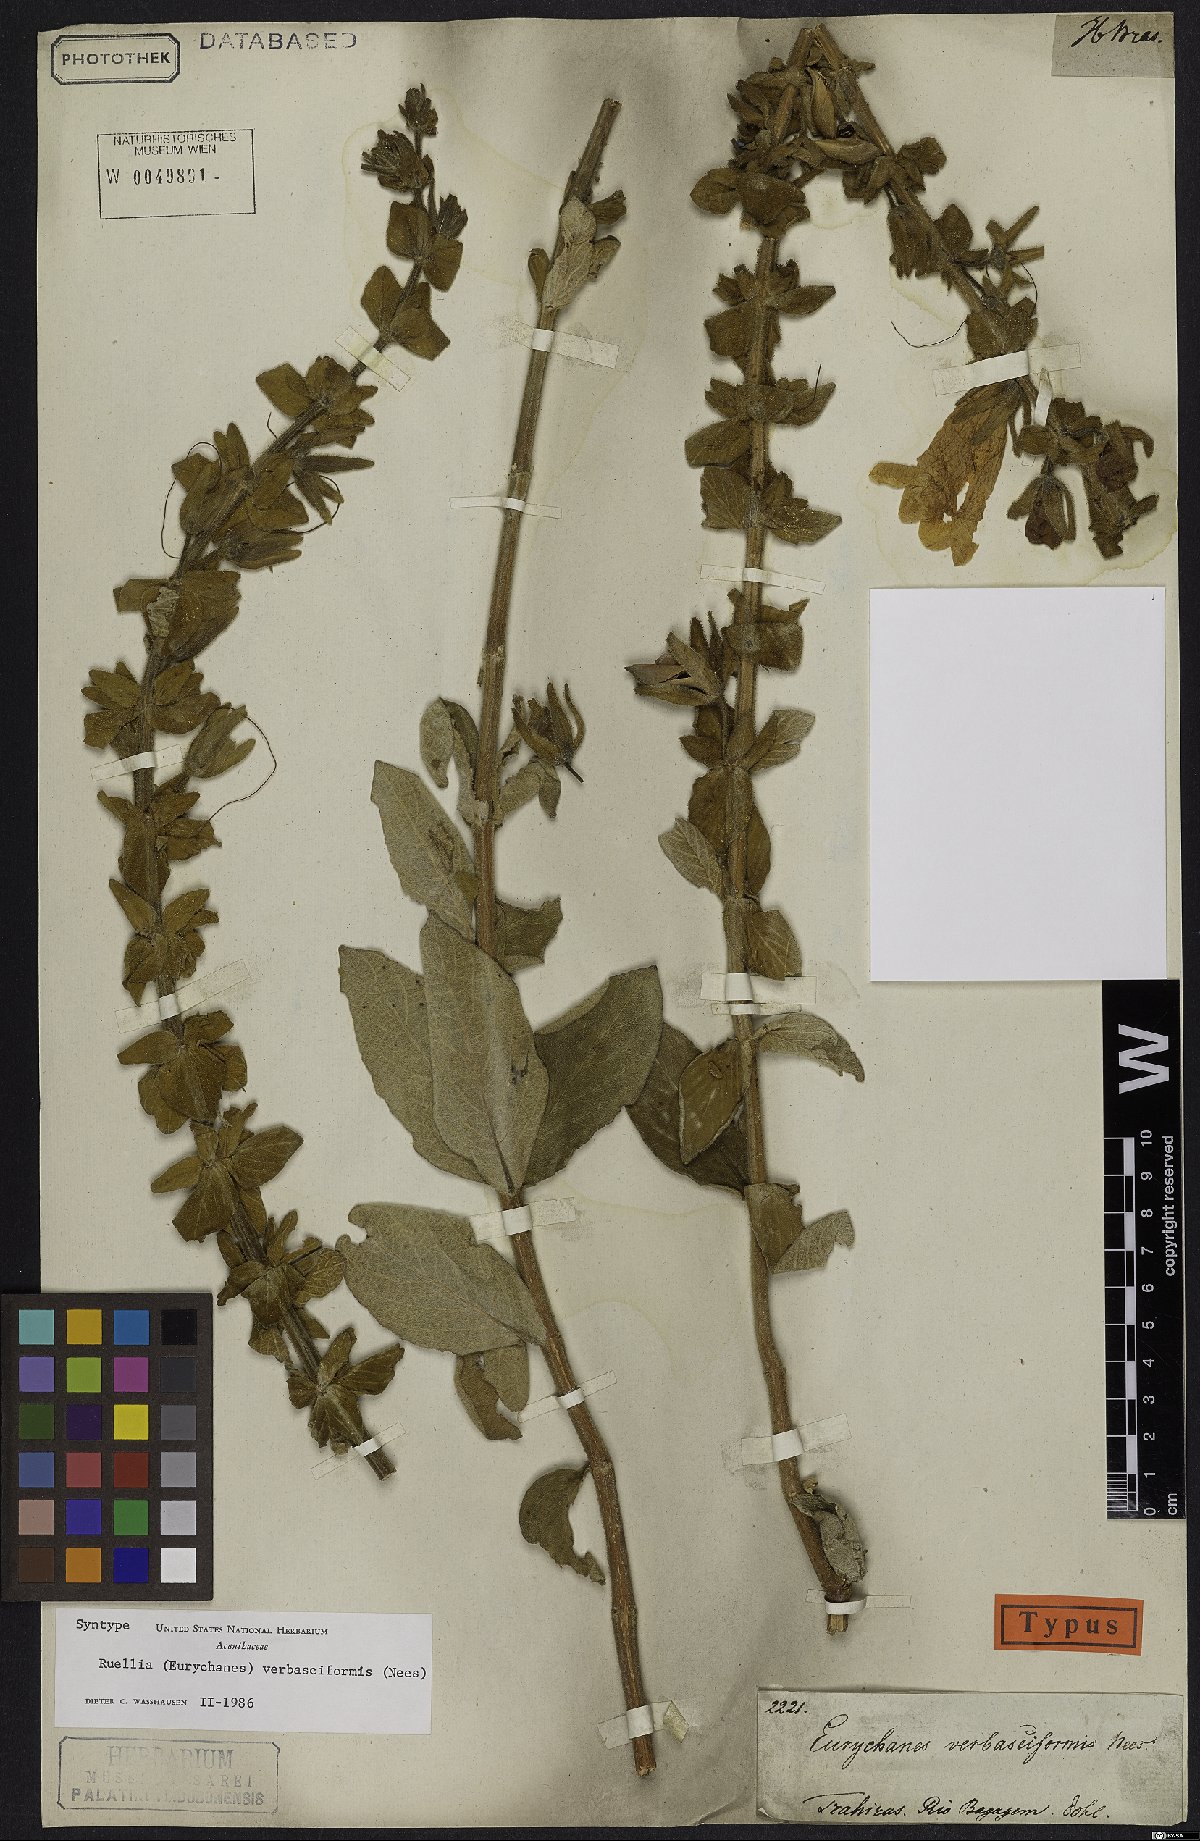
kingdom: Plantae
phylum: Tracheophyta
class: Magnoliopsida
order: Lamiales
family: Acanthaceae
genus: Ruellia
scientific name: Ruellia verbasciformis
